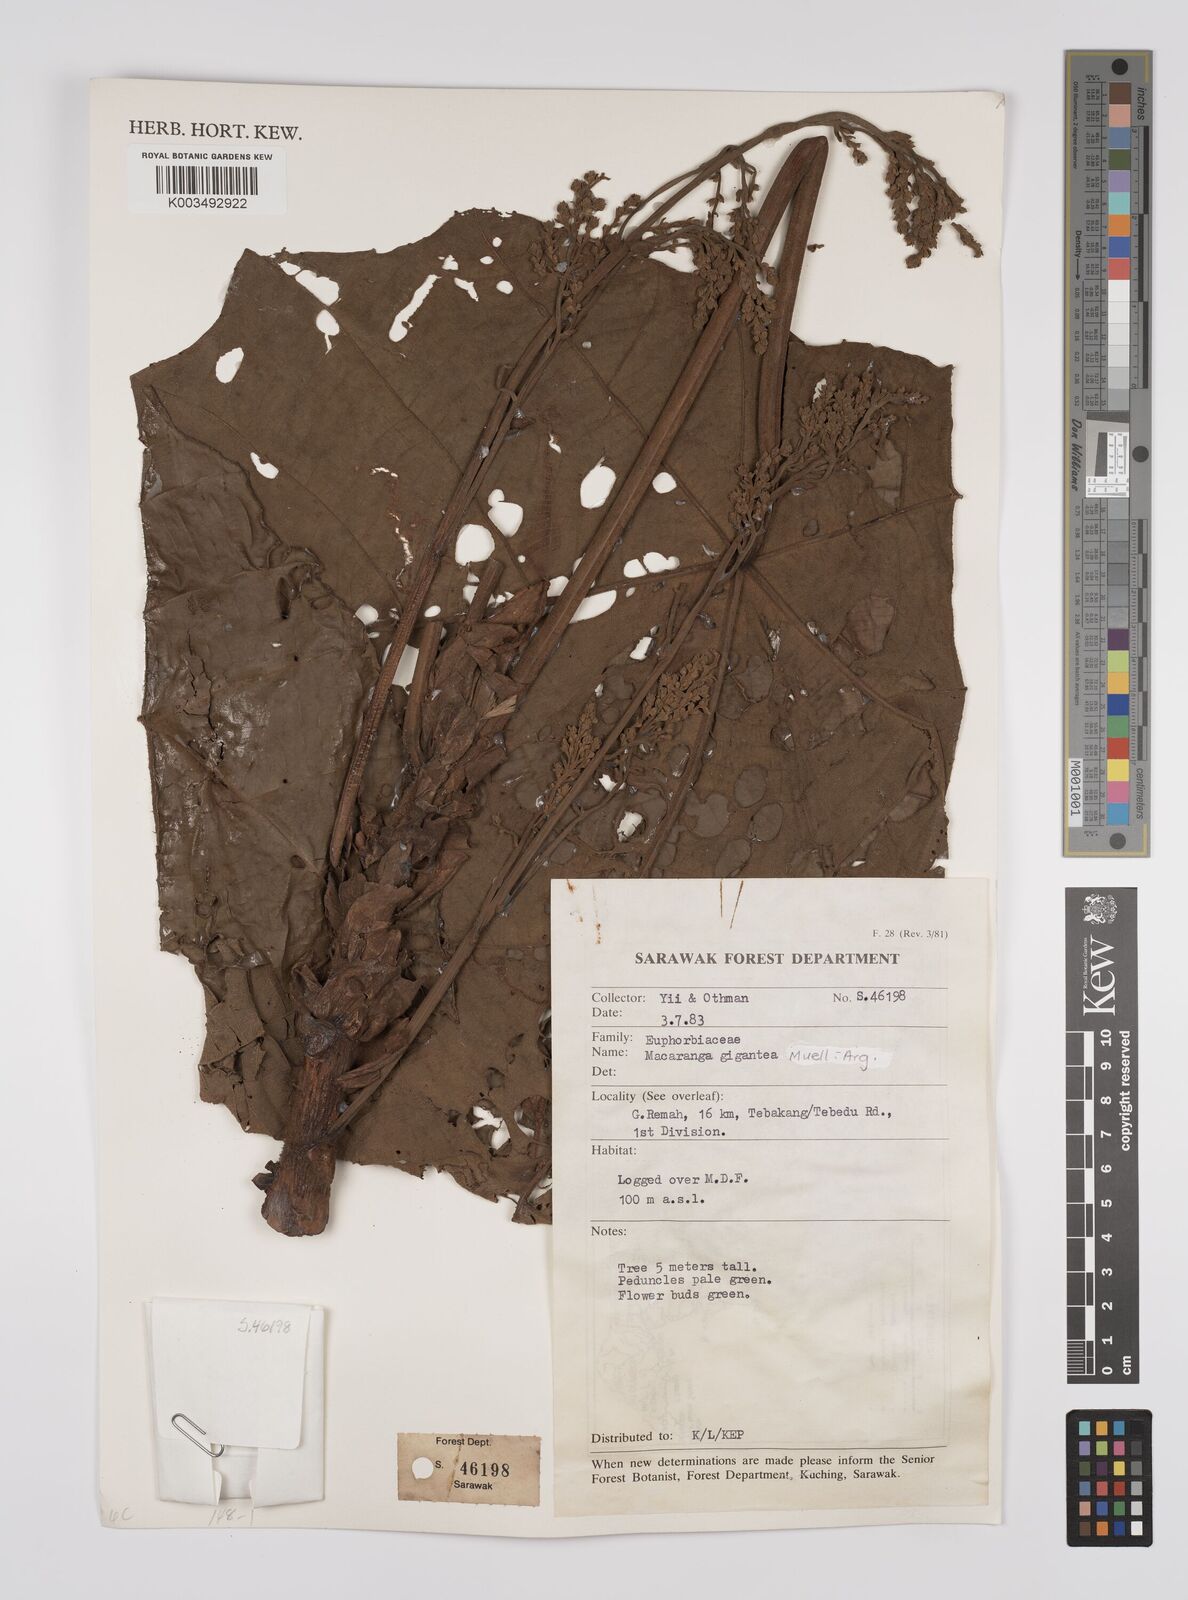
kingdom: Plantae
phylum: Tracheophyta
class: Magnoliopsida
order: Malpighiales
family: Euphorbiaceae
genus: Macaranga
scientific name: Macaranga gigantea
